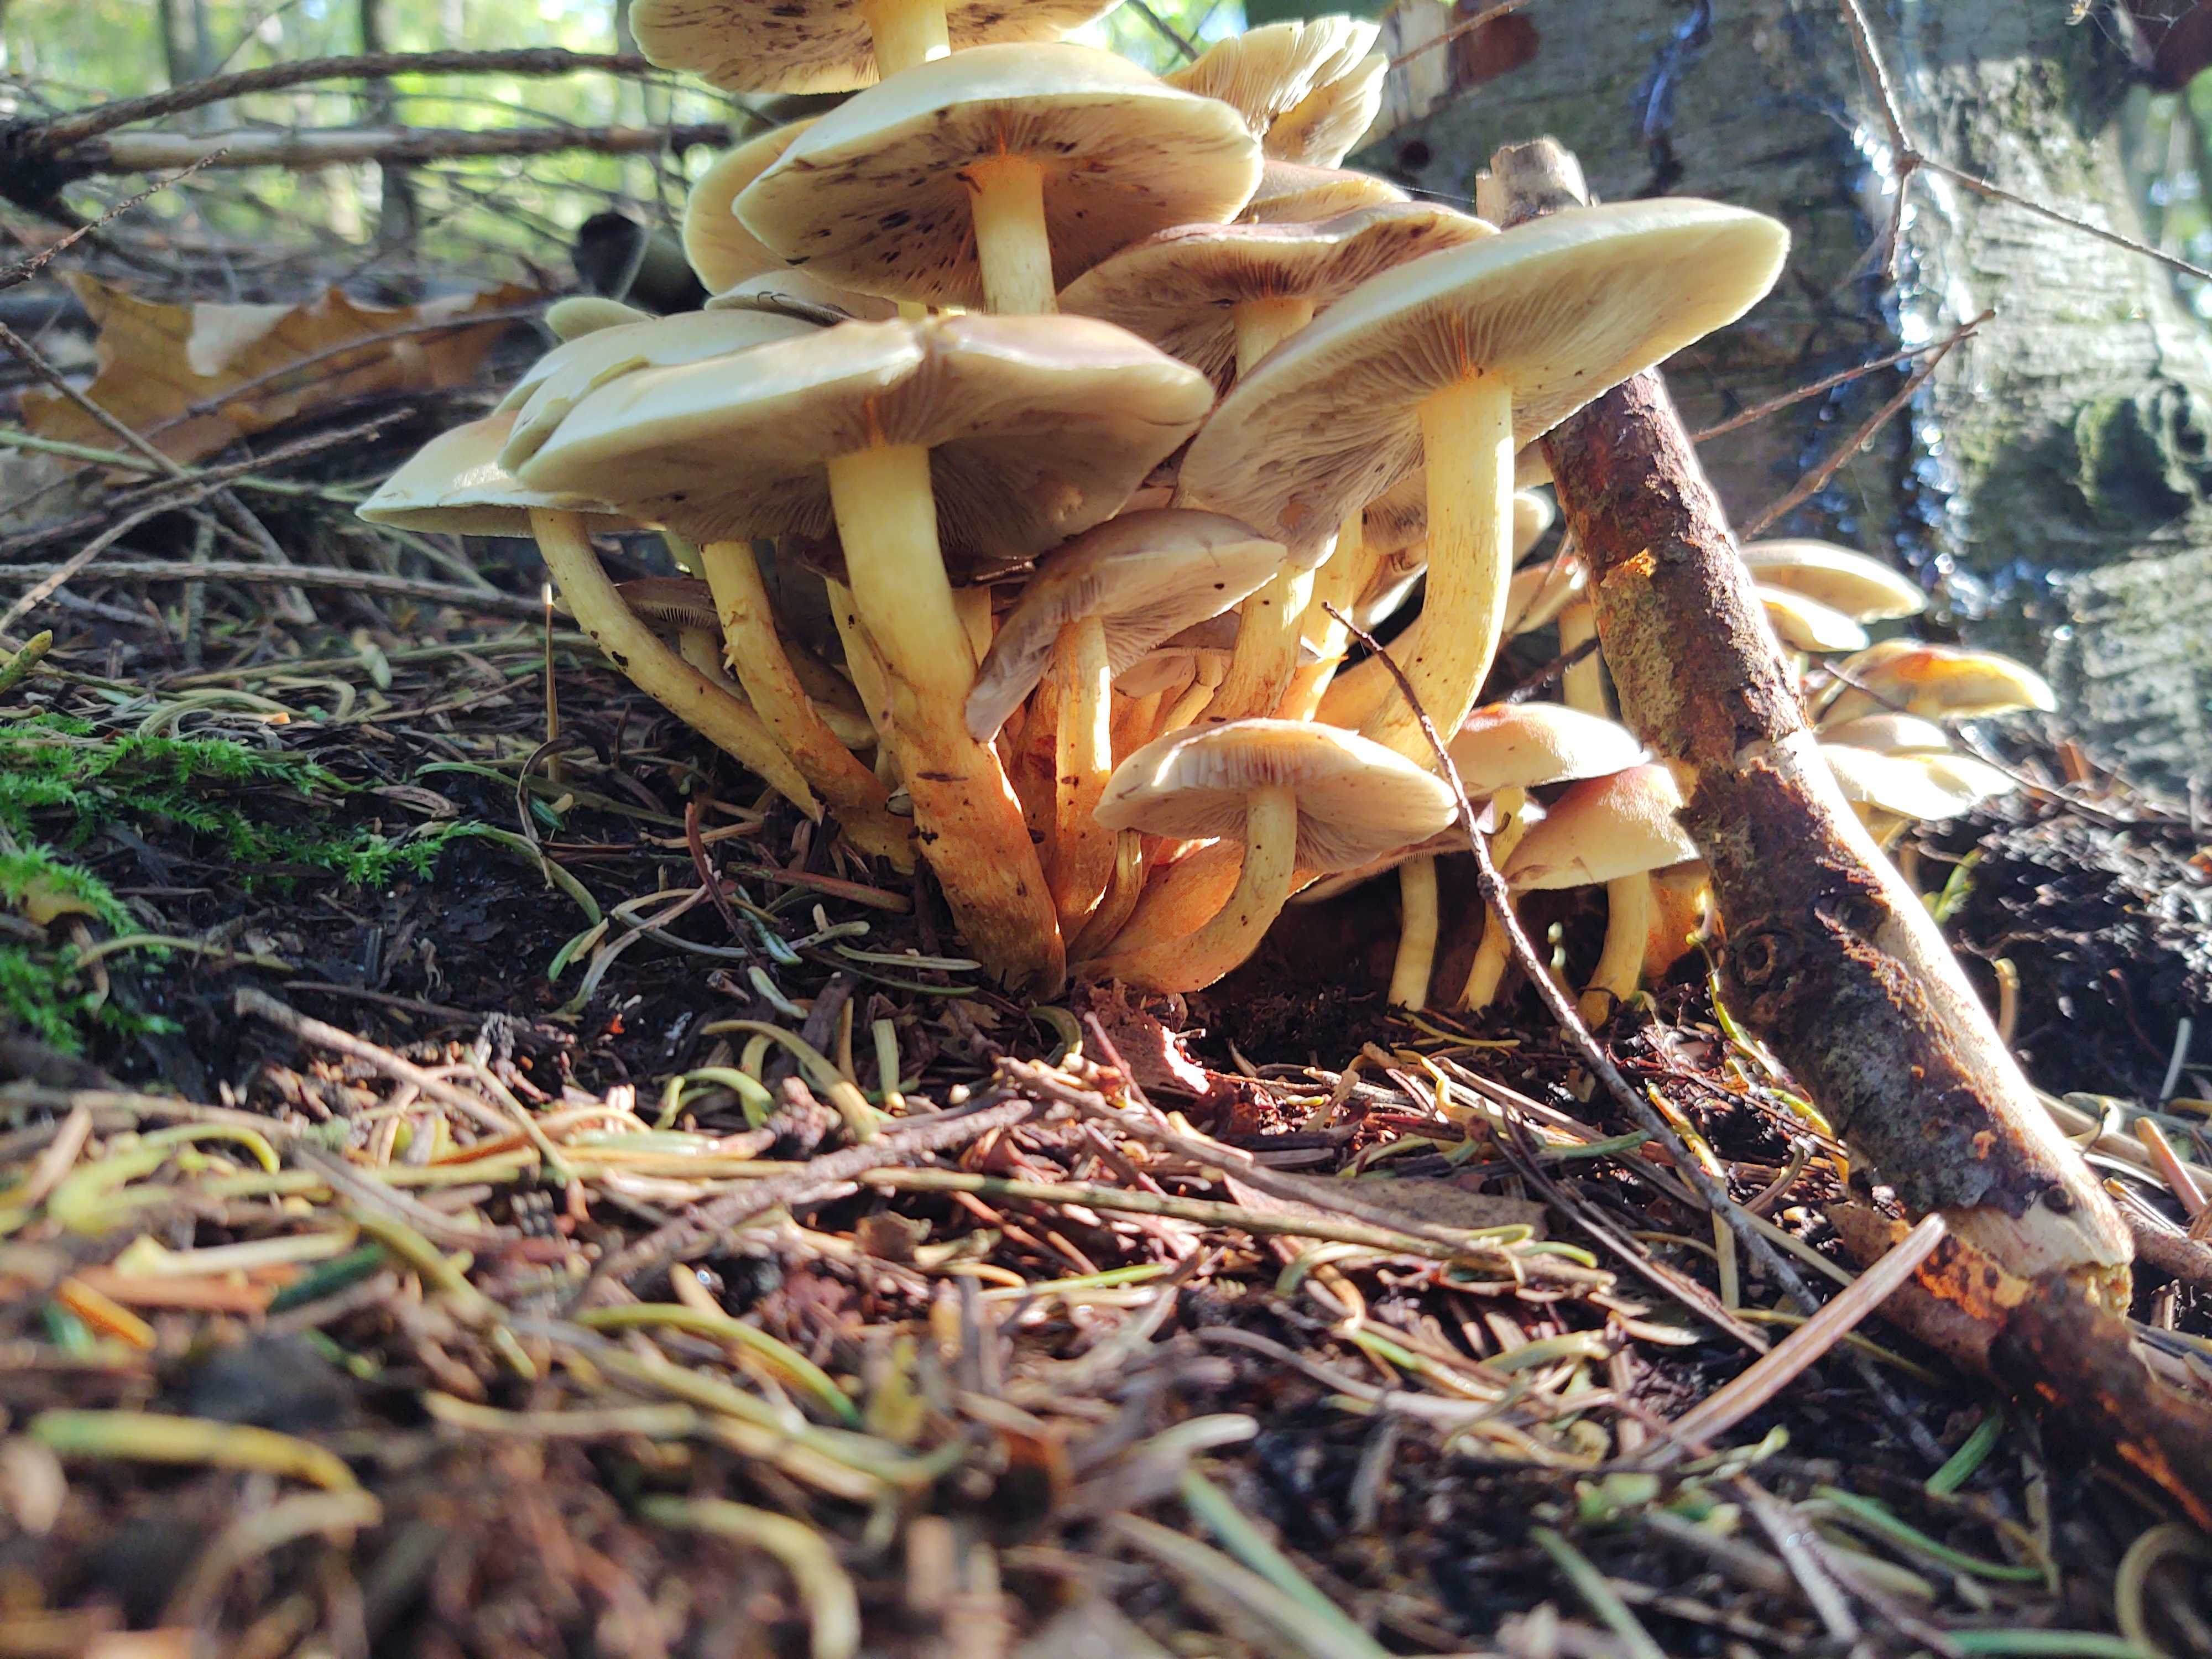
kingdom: Fungi
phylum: Basidiomycota
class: Agaricomycetes
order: Agaricales
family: Strophariaceae
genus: Hypholoma
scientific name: Hypholoma fasciculare
